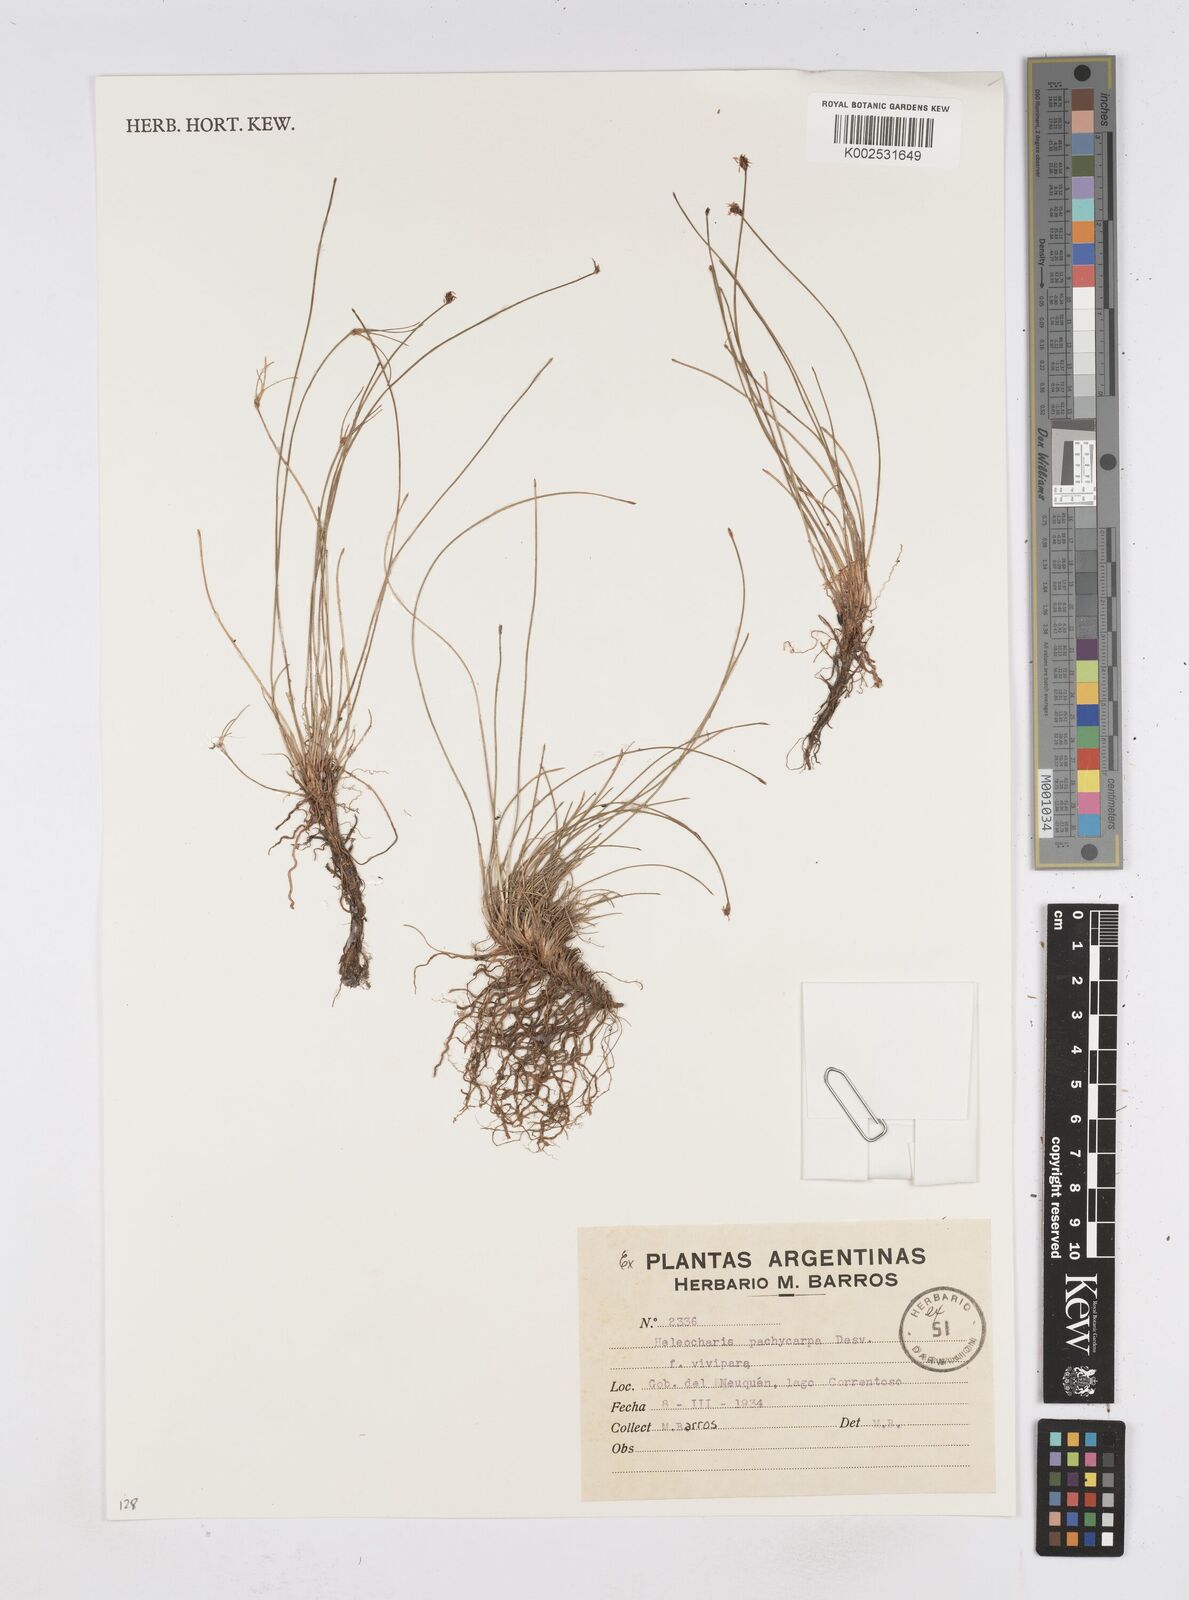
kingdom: Plantae
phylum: Tracheophyta
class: Liliopsida
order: Poales
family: Cyperaceae
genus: Eleocharis
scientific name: Eleocharis pachycarpa
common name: Black sand spikerush
